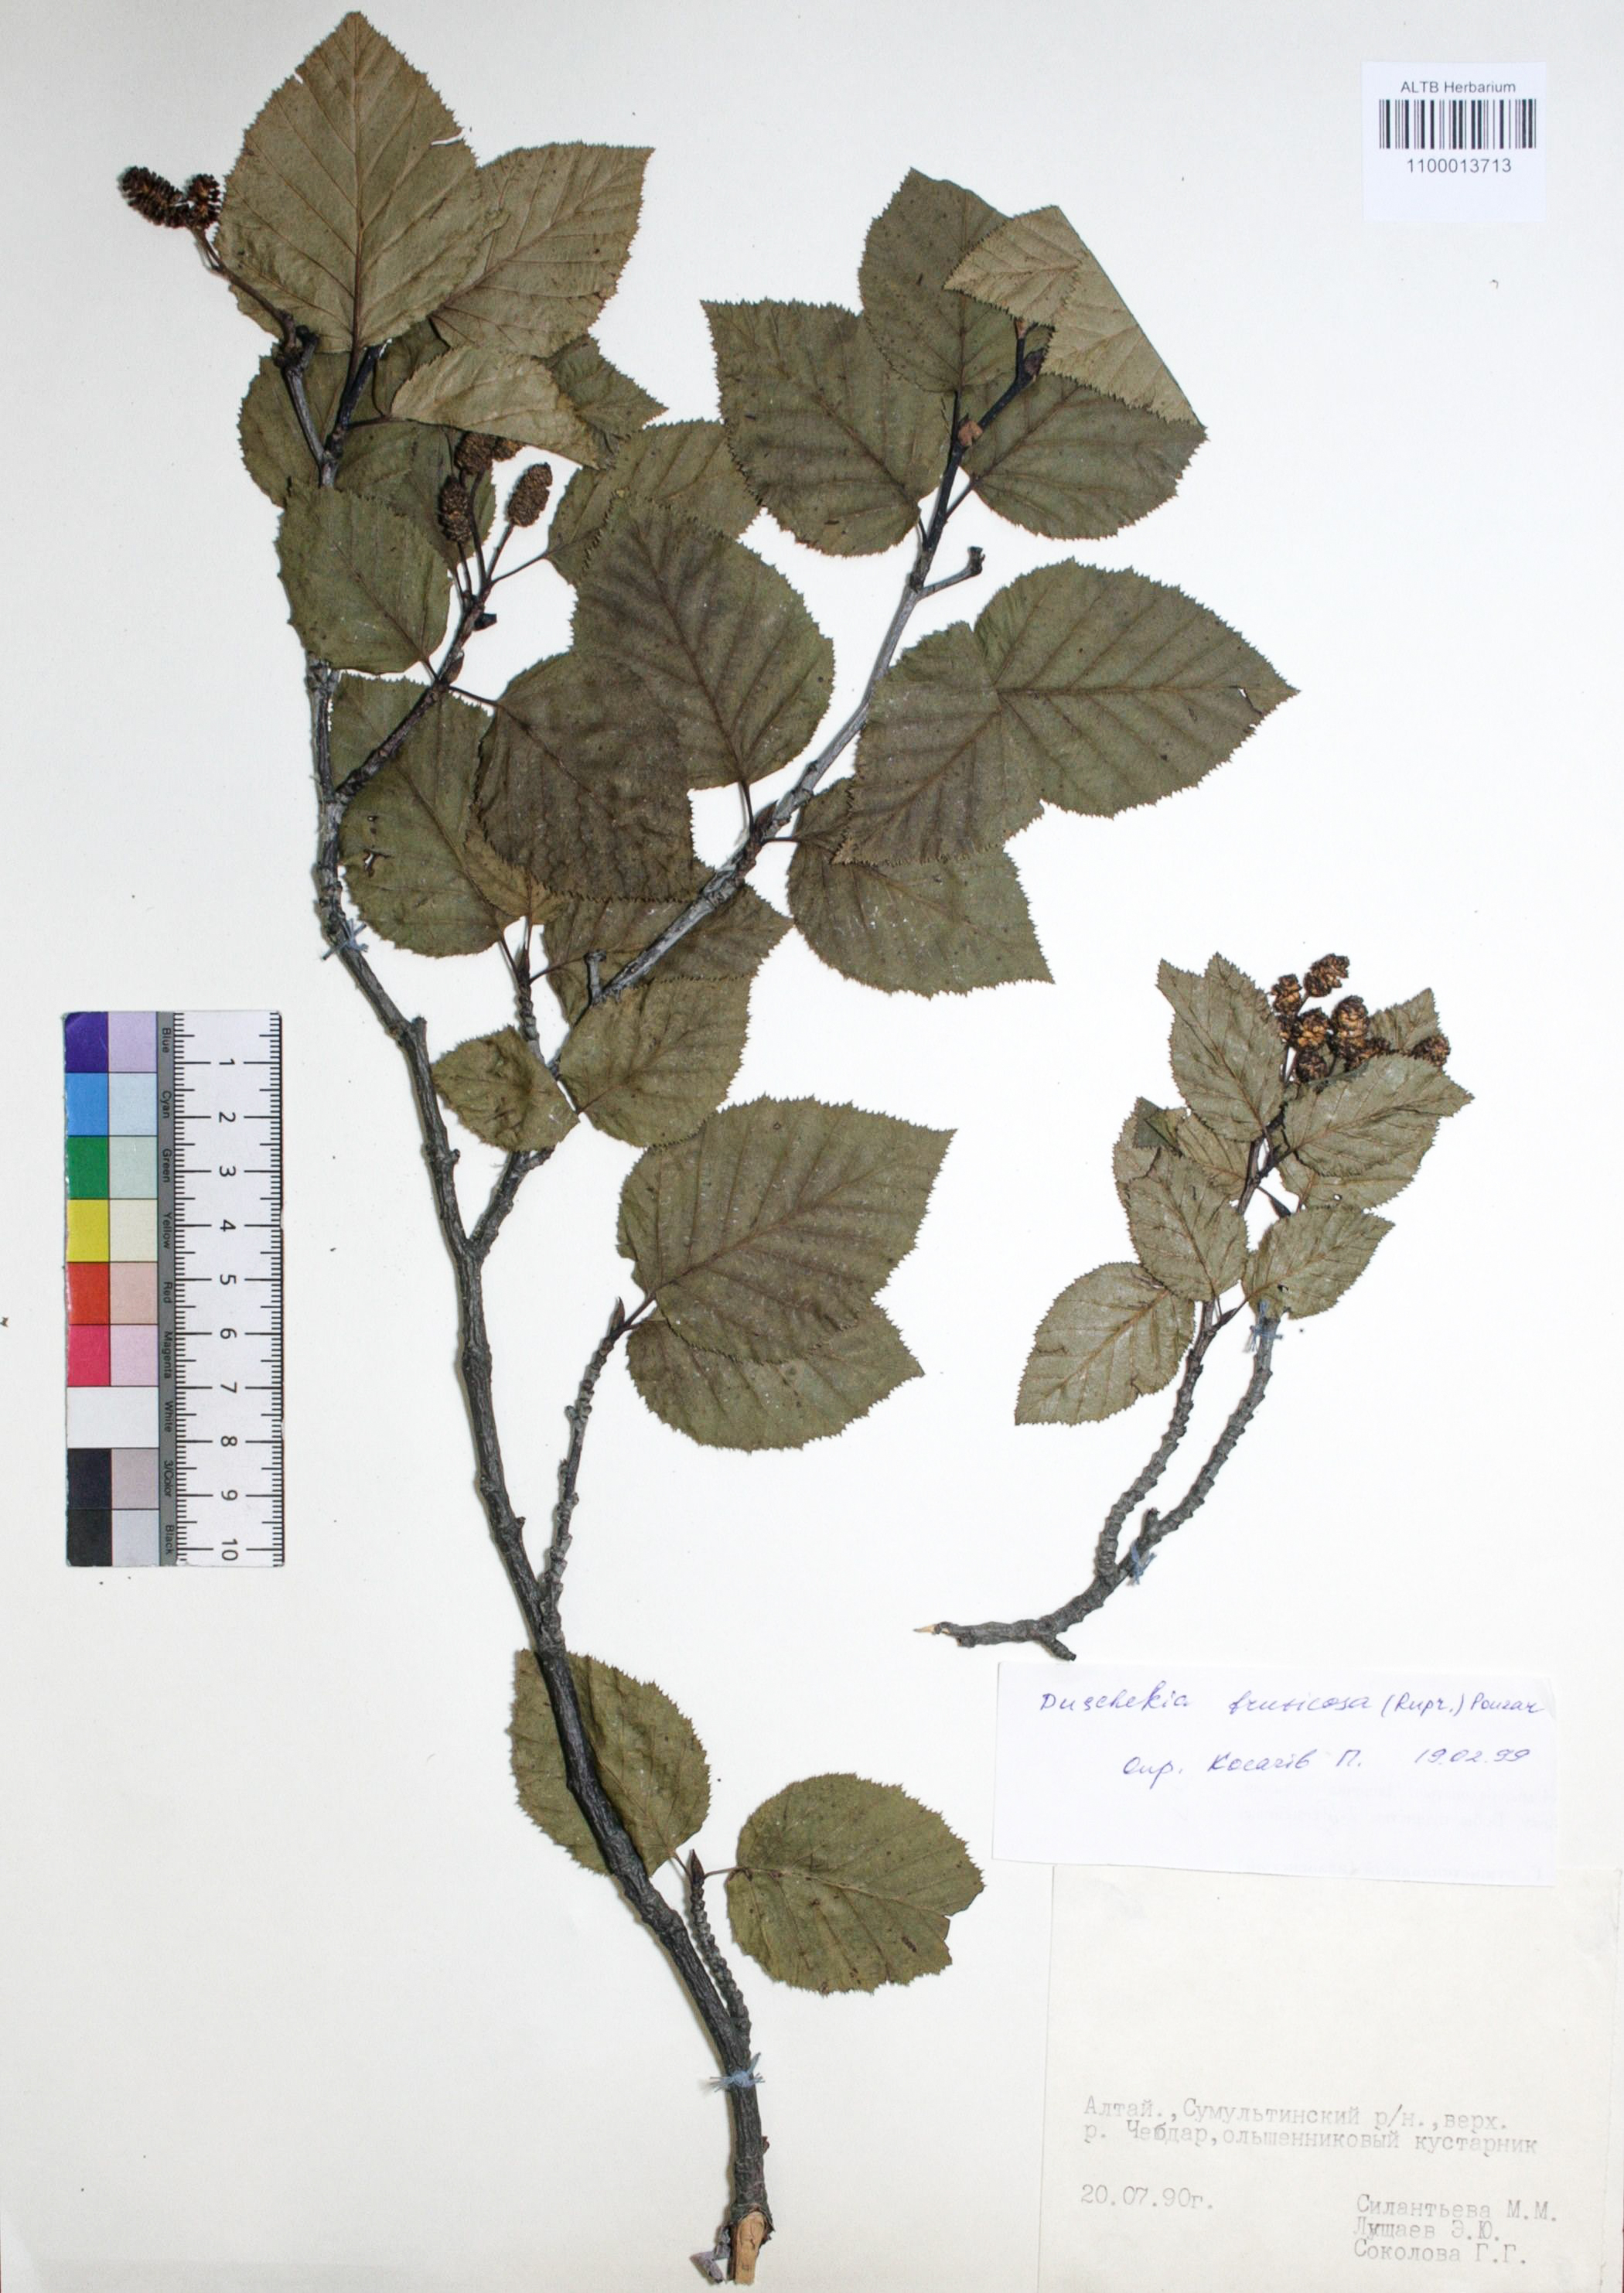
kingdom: Plantae
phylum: Tracheophyta
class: Magnoliopsida
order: Fagales
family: Betulaceae
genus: Alnus
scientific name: Alnus alnobetula
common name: Green alder
